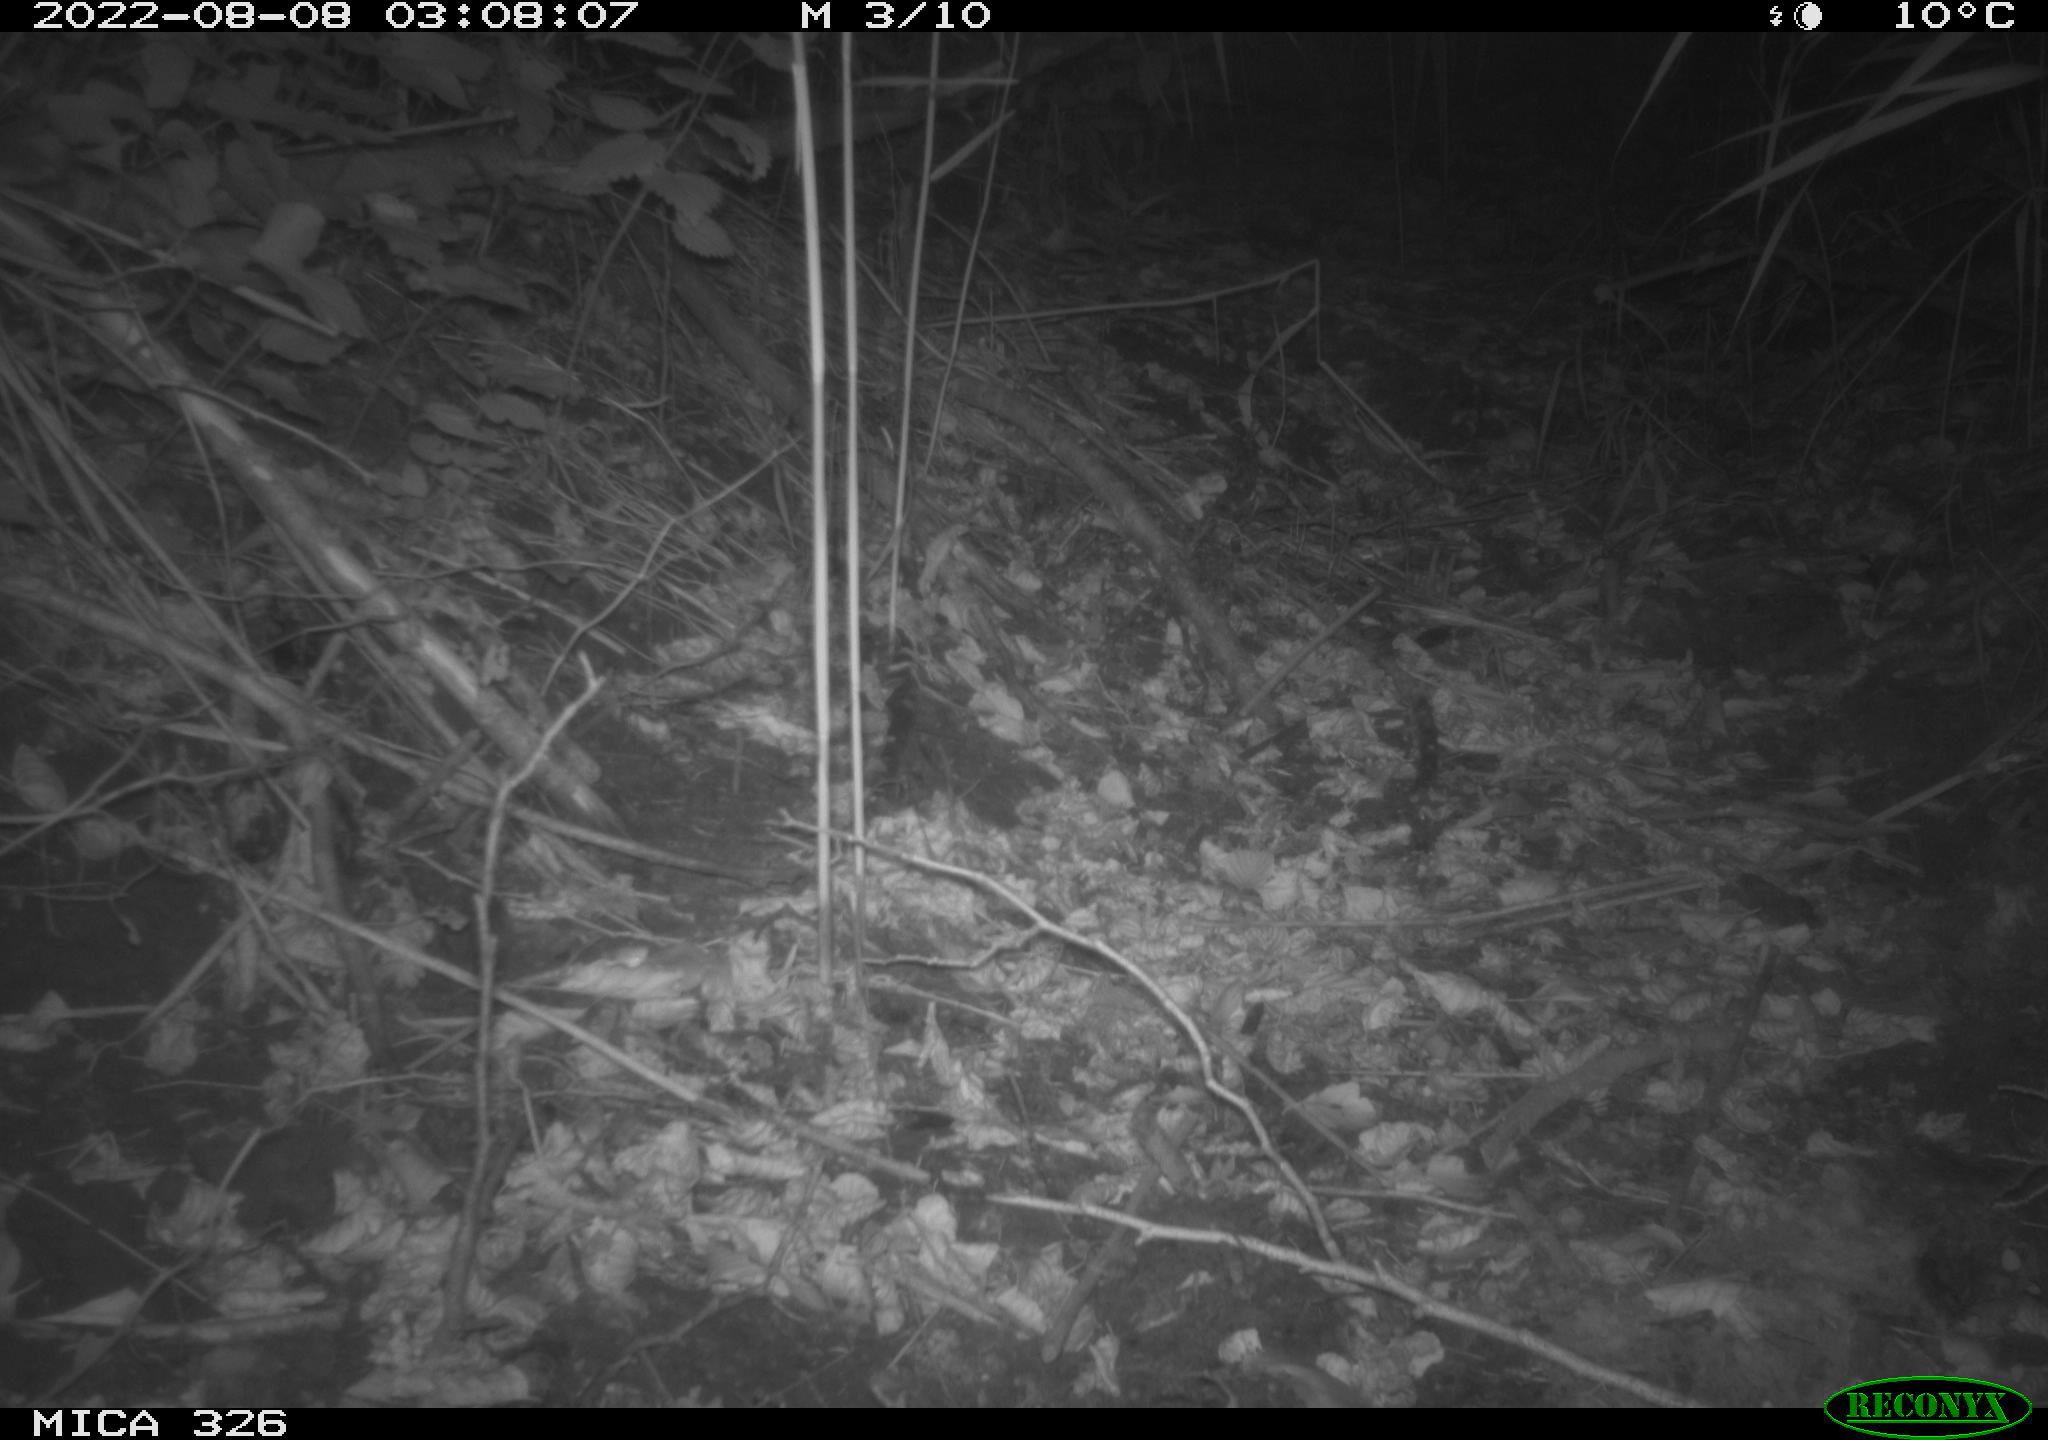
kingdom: Animalia
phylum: Chordata
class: Mammalia
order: Rodentia
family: Muridae
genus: Rattus
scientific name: Rattus norvegicus
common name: Brown rat
